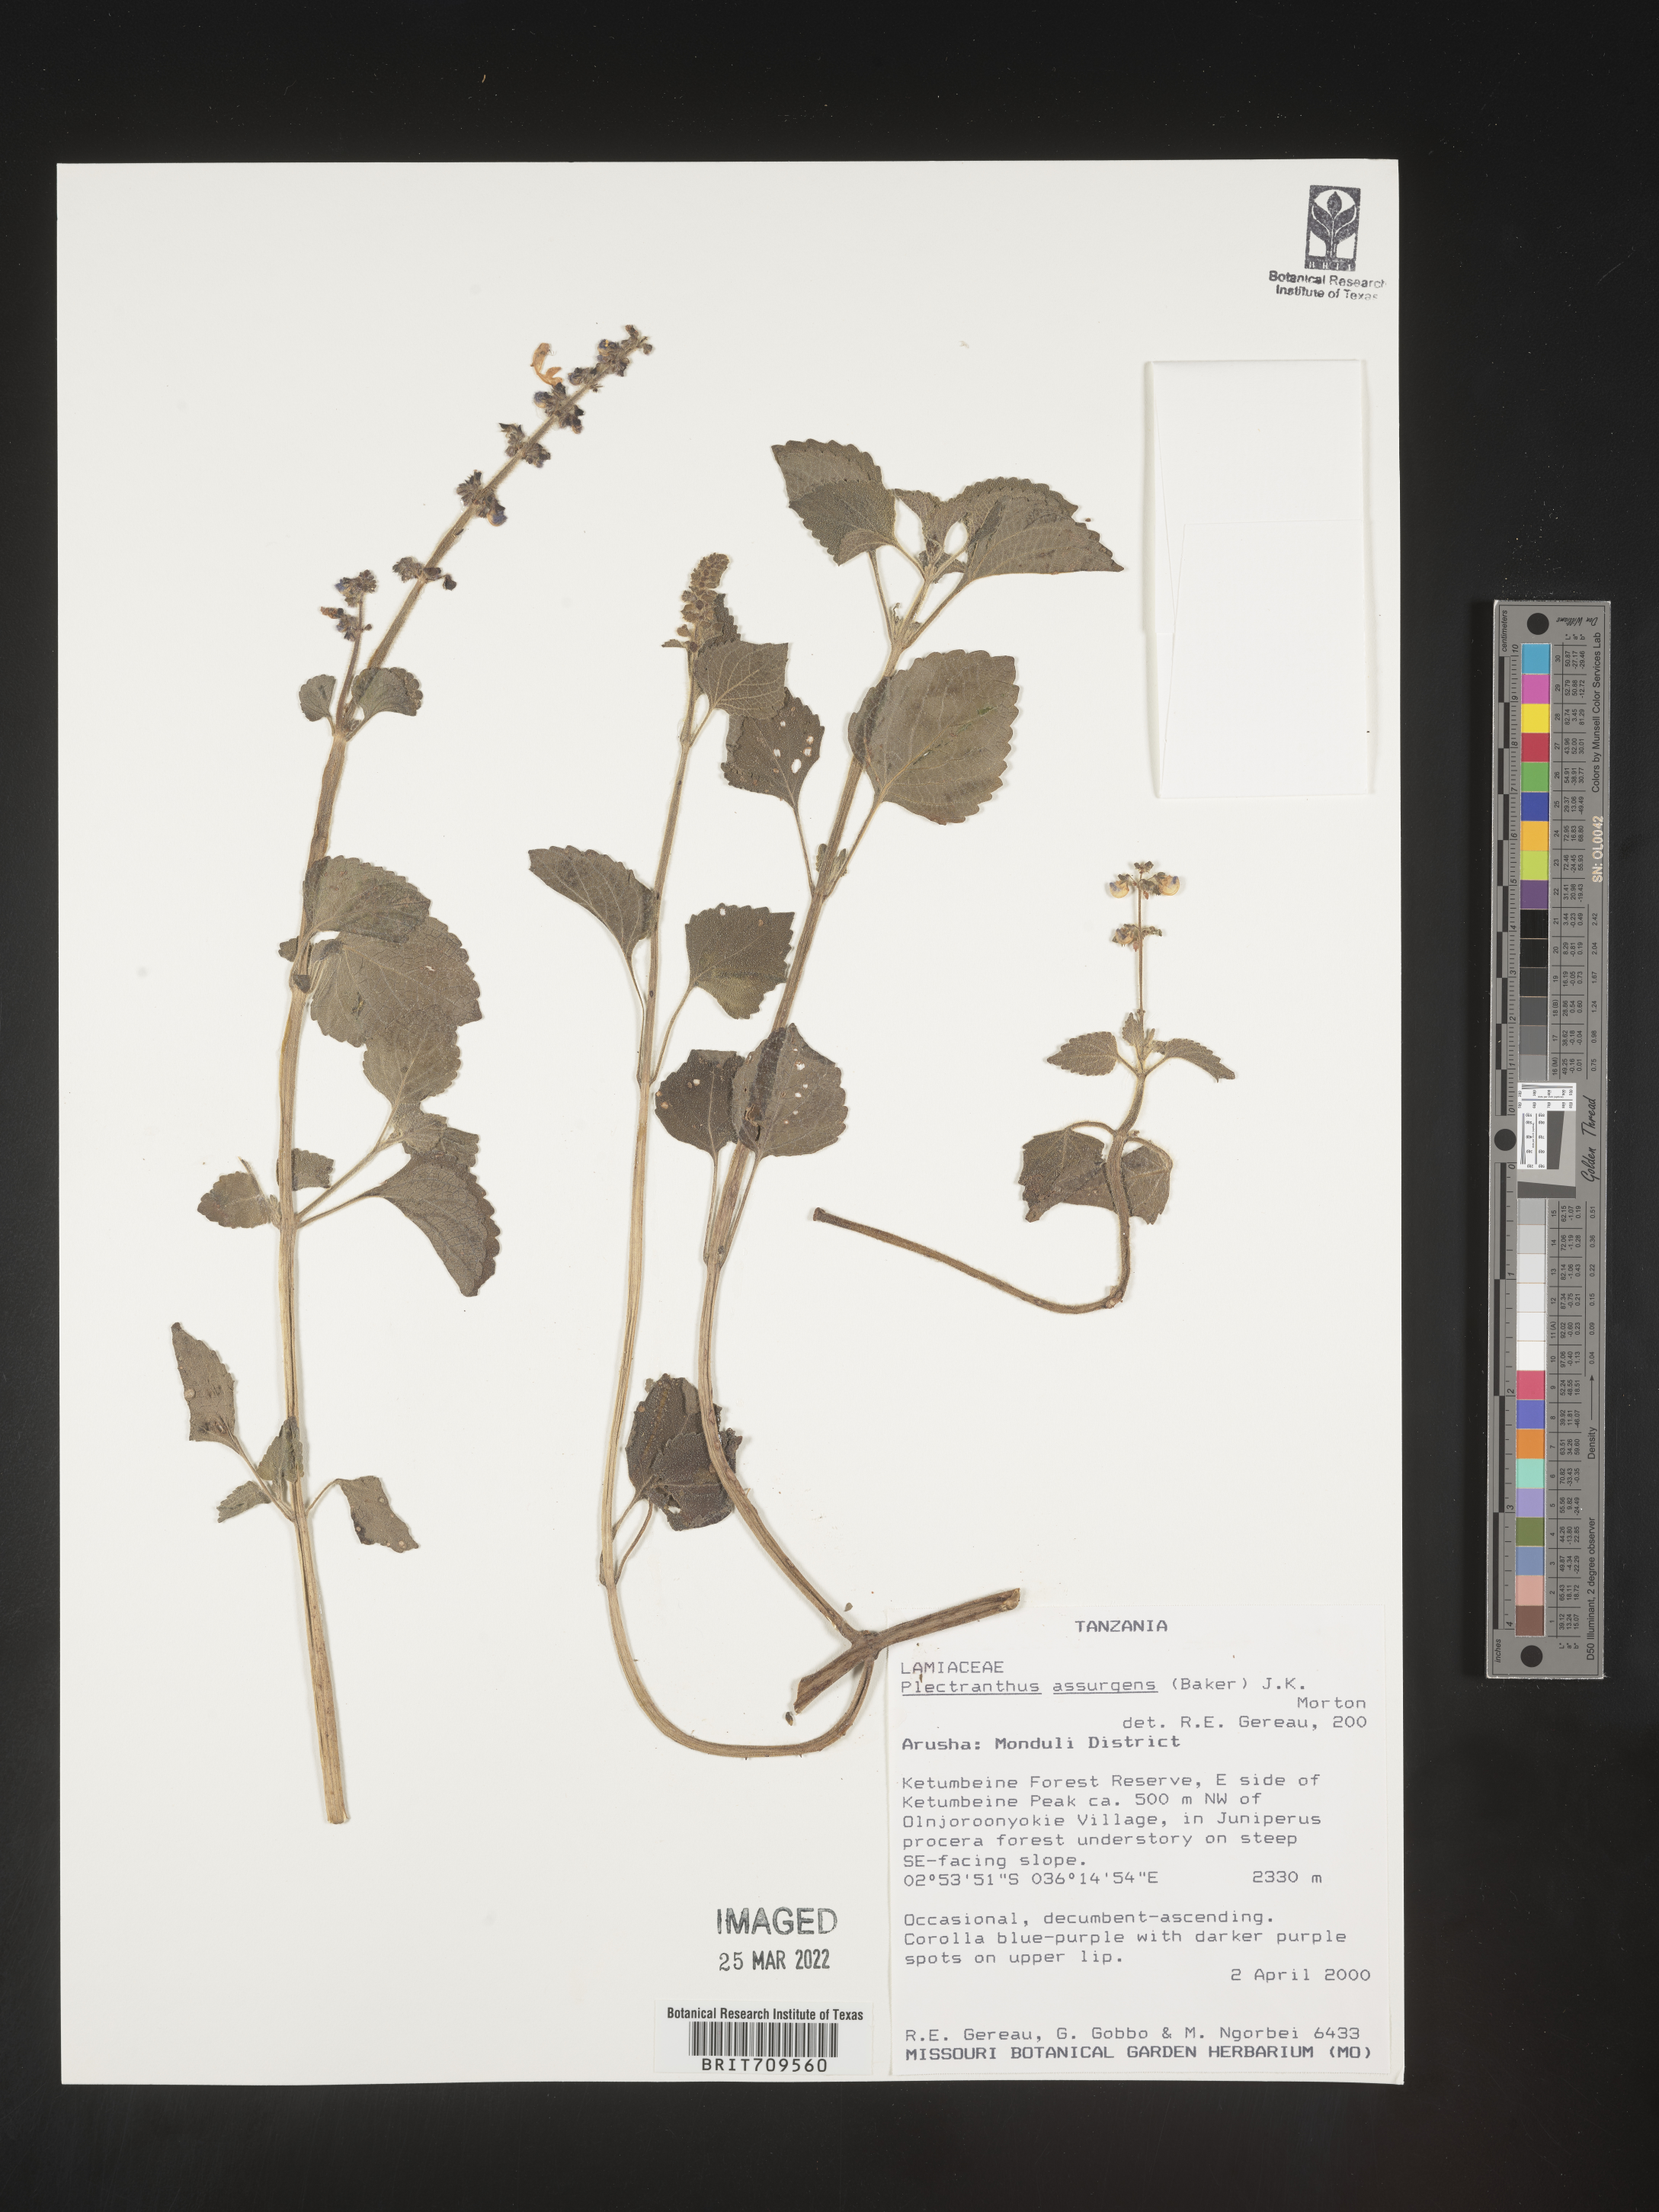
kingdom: Plantae
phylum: Tracheophyta
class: Magnoliopsida
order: Lamiales
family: Lamiaceae
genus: Plectranthus
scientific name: Plectranthus
